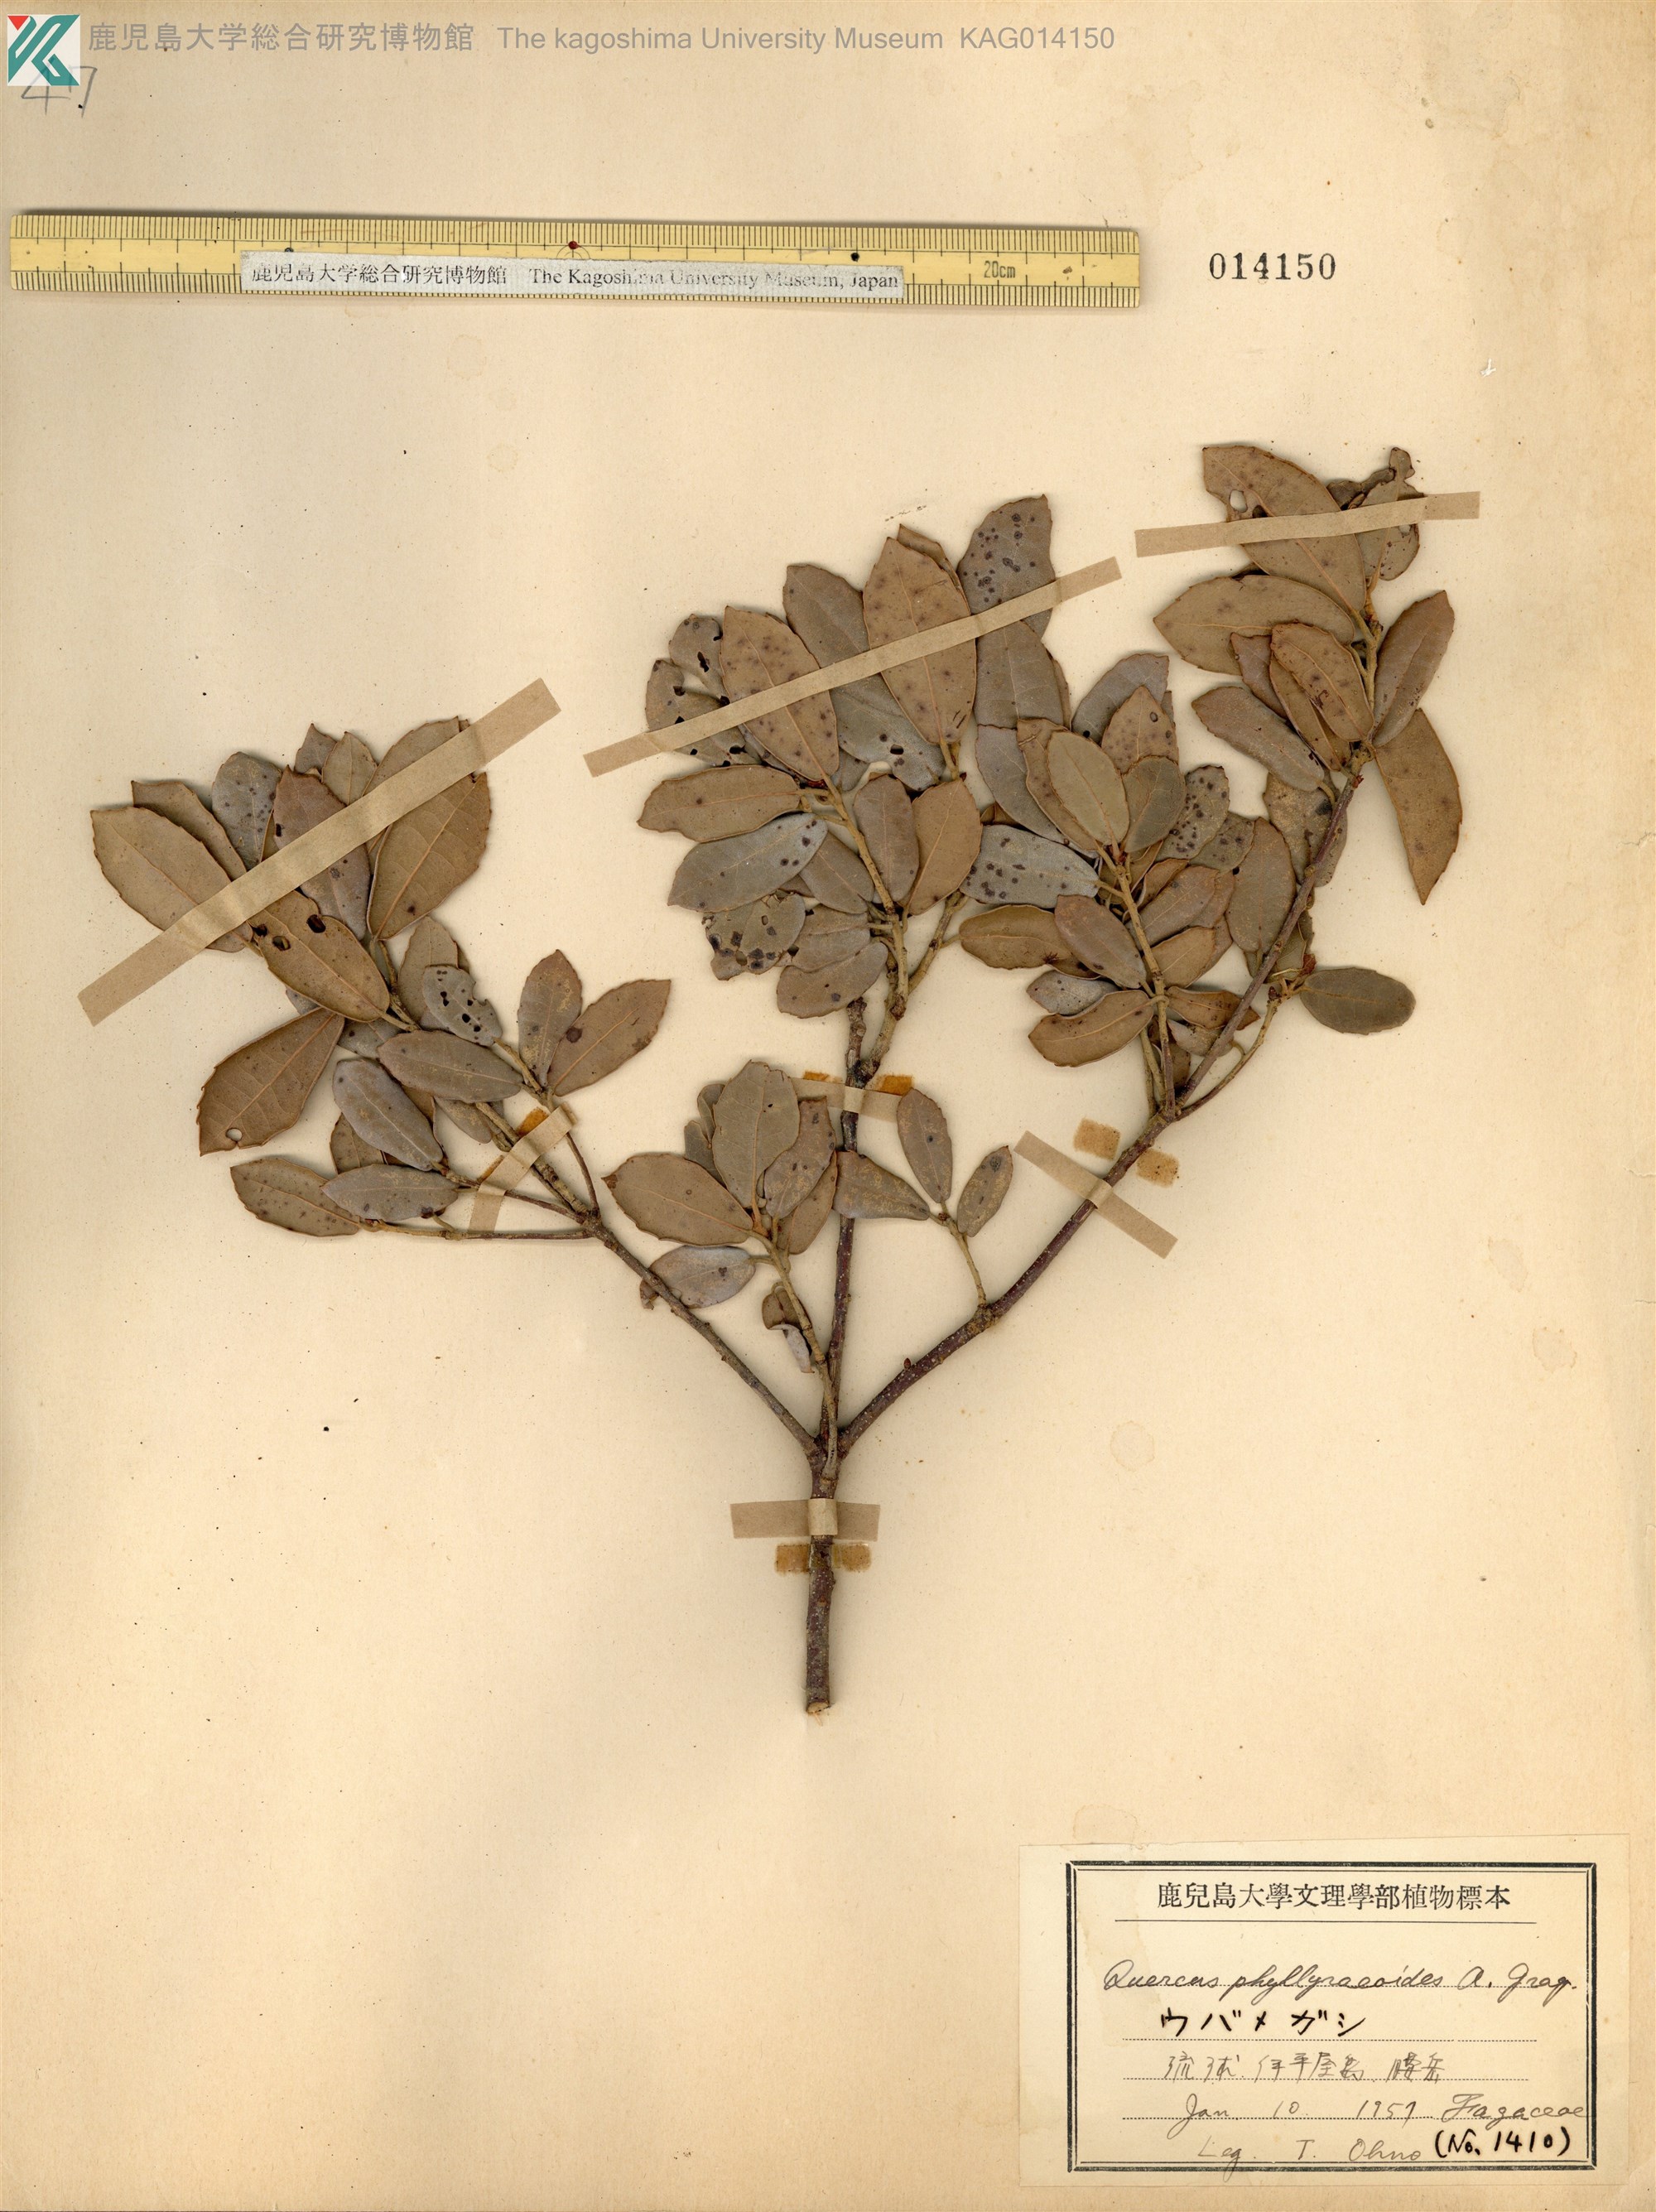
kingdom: Plantae
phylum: Tracheophyta
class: Magnoliopsida
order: Fagales
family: Fagaceae
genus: Quercus
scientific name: Quercus phillyraeoides
